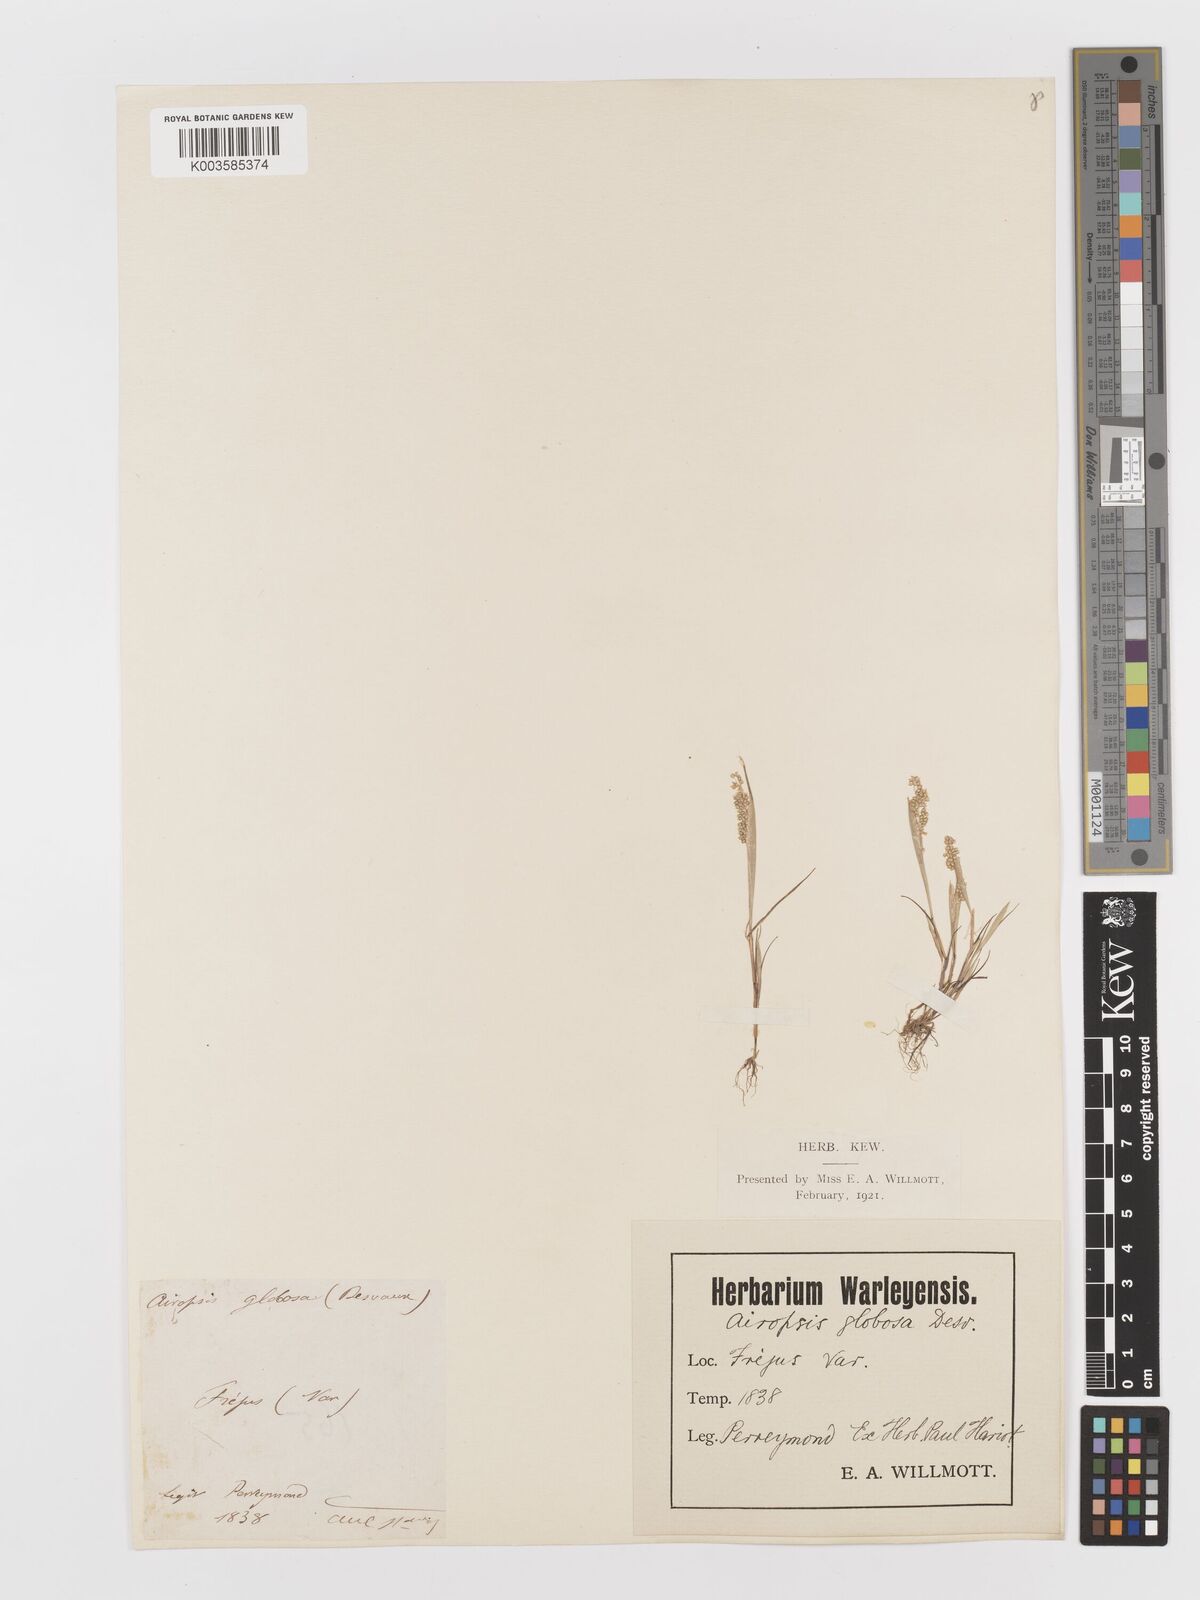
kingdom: Plantae
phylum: Tracheophyta
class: Liliopsida
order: Poales
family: Poaceae
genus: Airopsis
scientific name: Airopsis tenella
